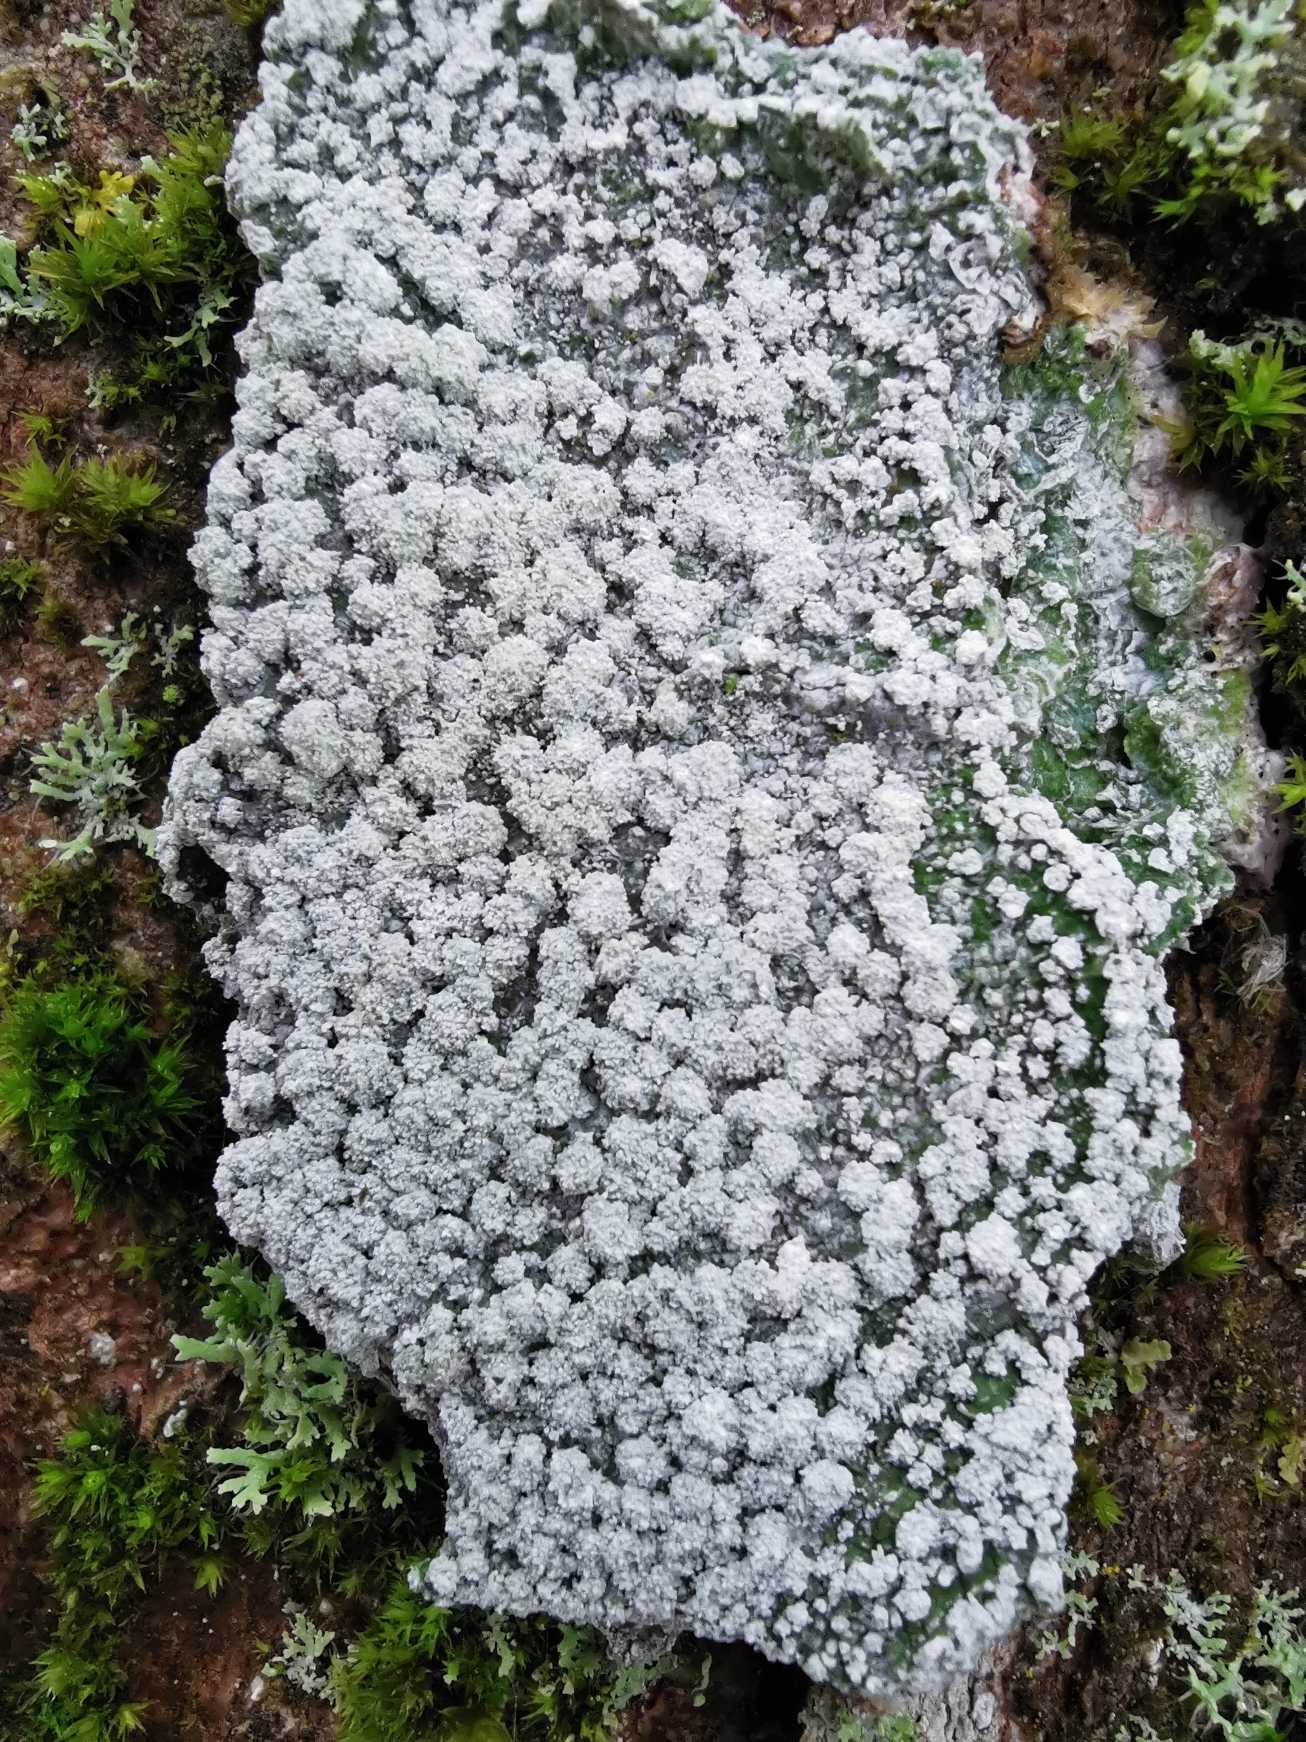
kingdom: Fungi
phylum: Ascomycota
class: Lecanoromycetes
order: Pertusariales
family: Pertusariaceae
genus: Lepra
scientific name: Lepra amara
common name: Bitter prikvortelav
